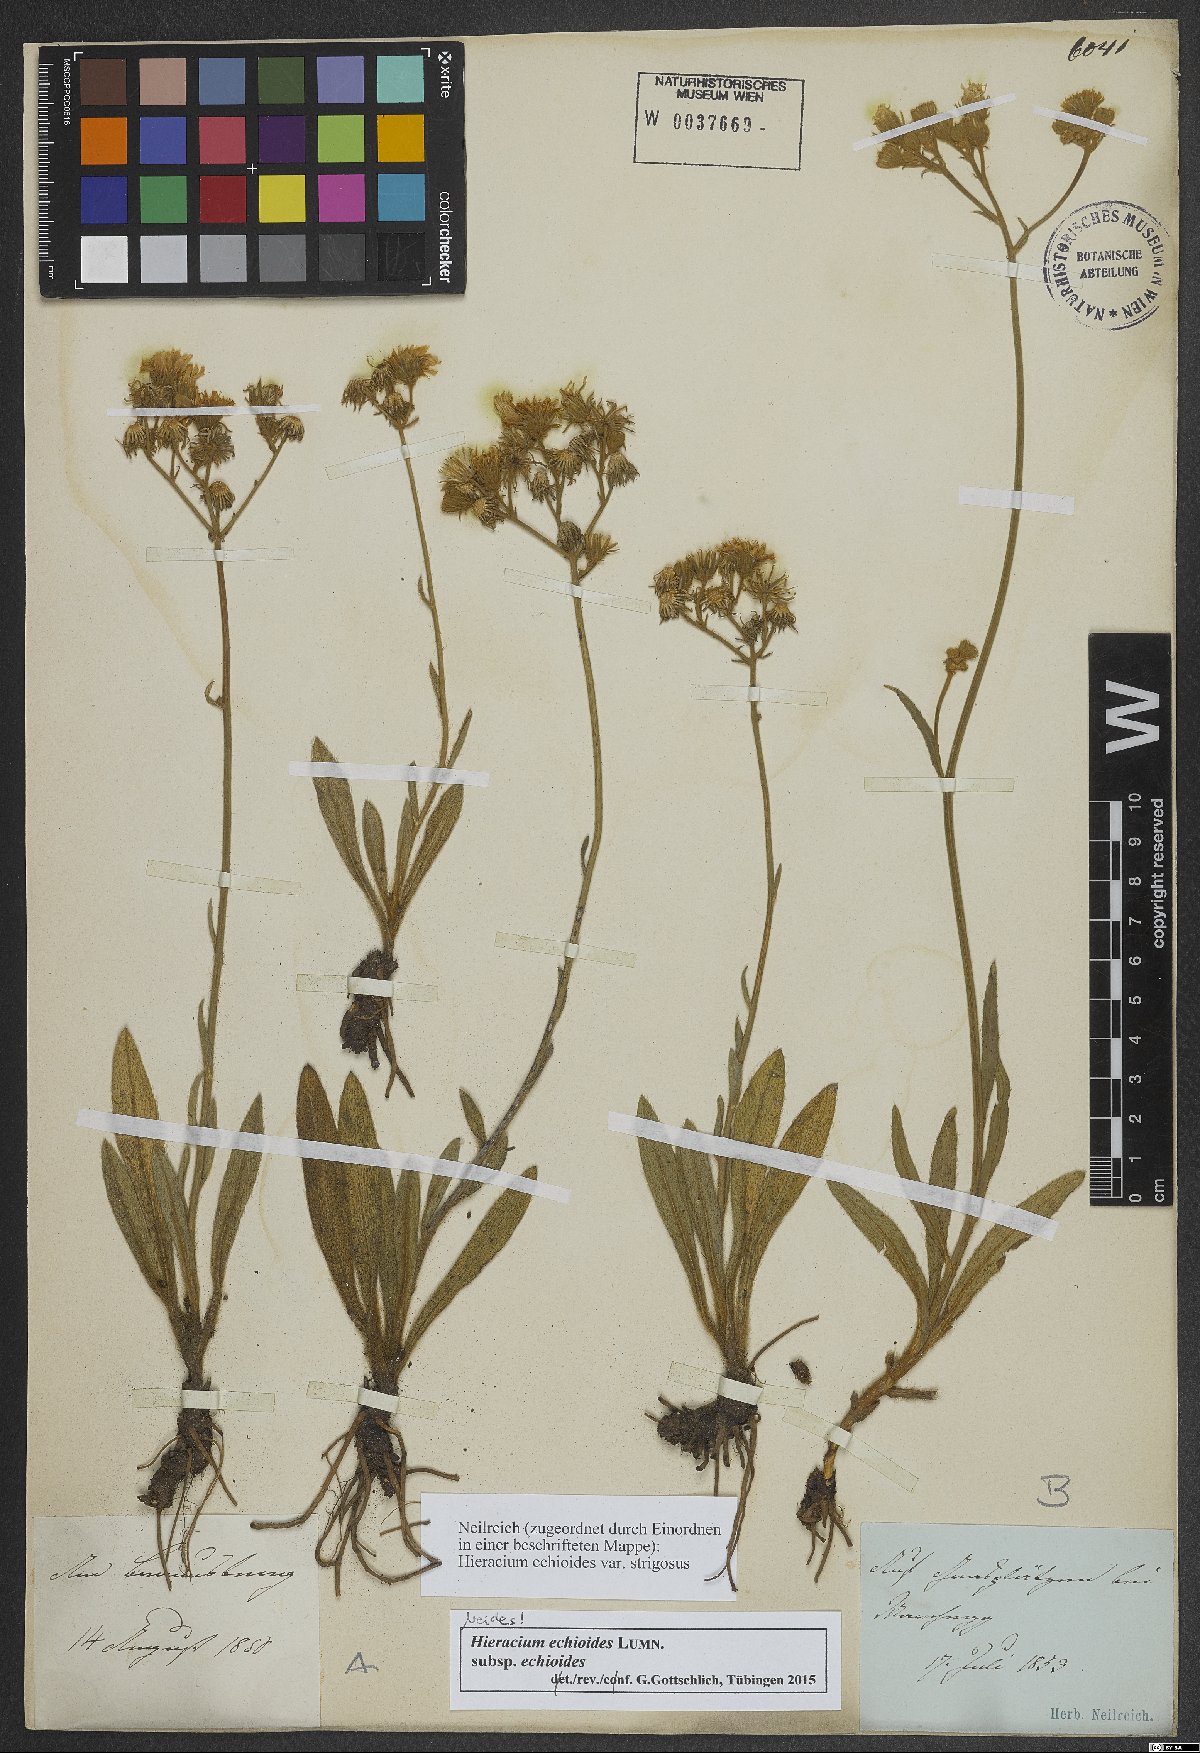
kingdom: Plantae
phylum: Tracheophyta
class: Magnoliopsida
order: Asterales
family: Asteraceae
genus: Pilosella
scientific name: Pilosella echioides
